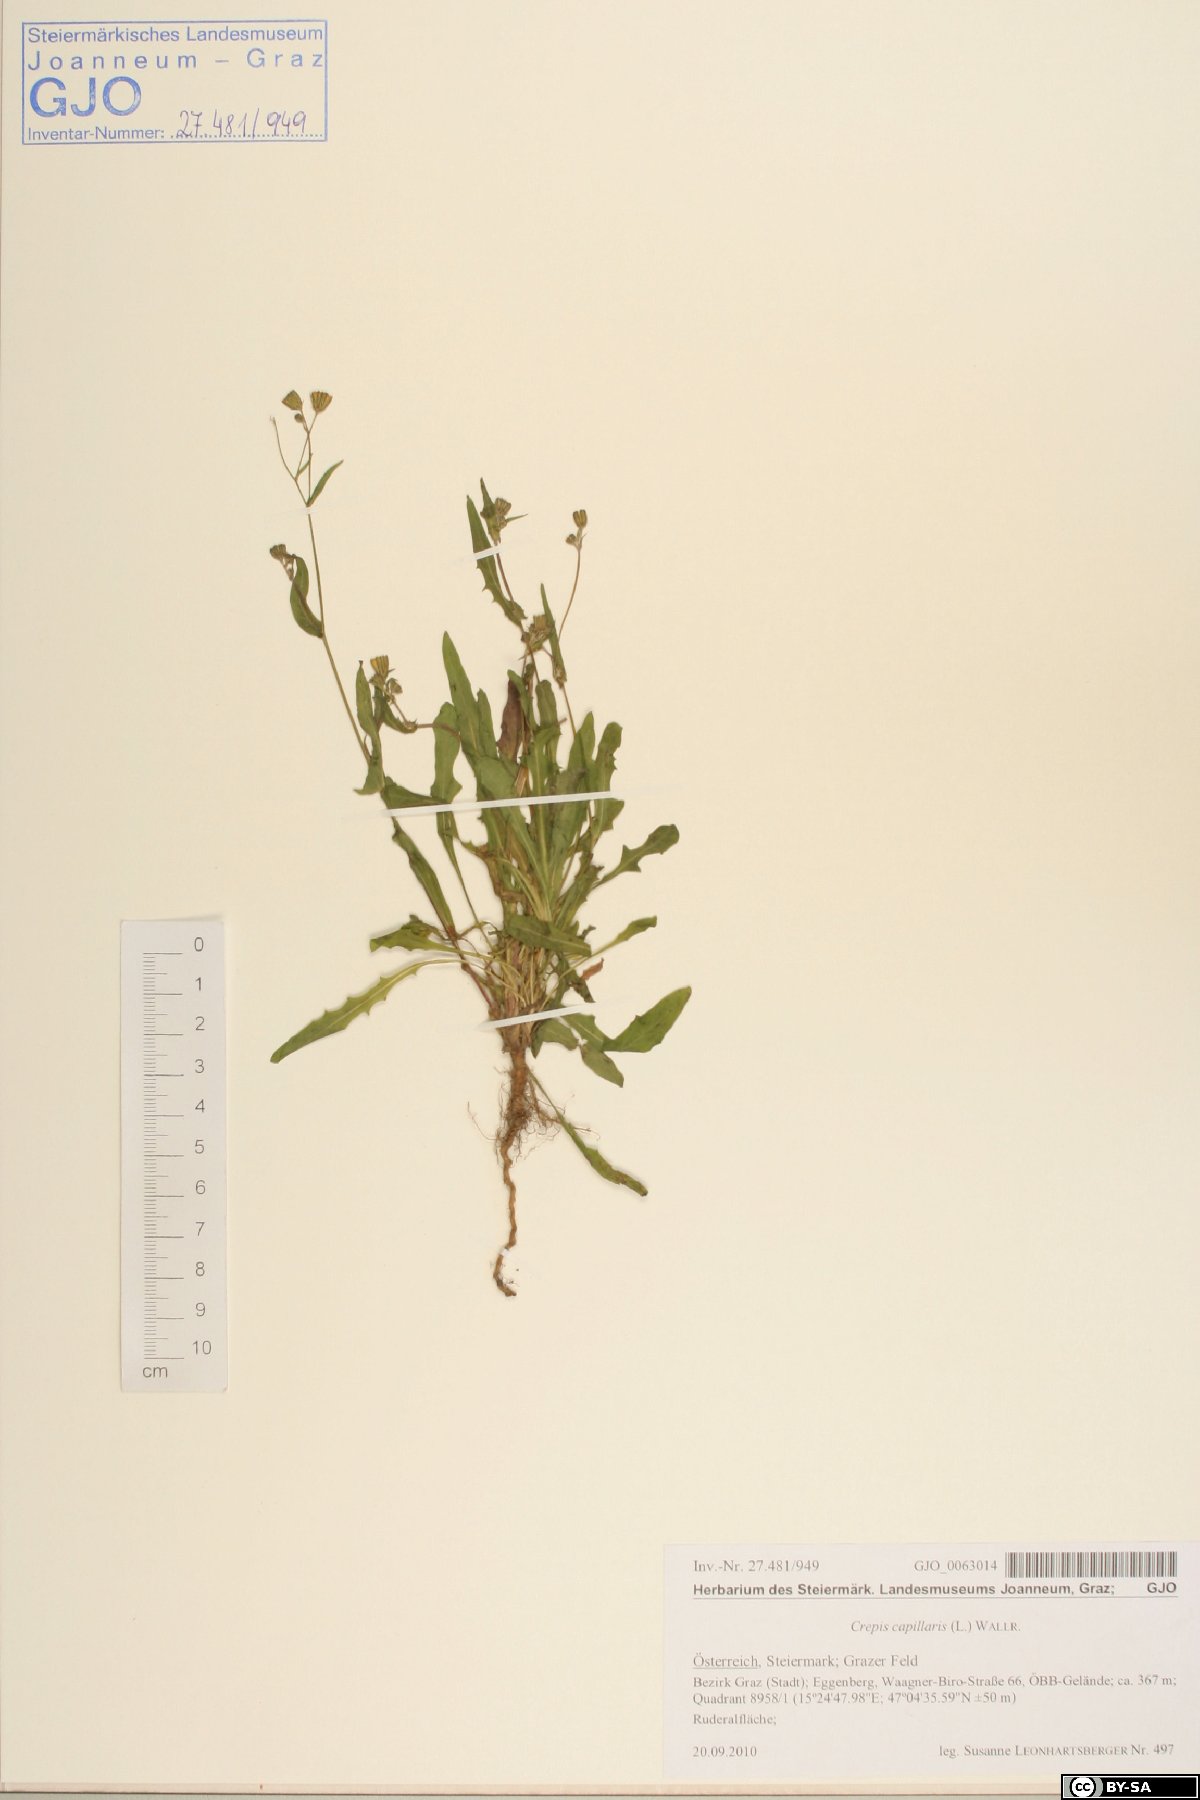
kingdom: Plantae
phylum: Tracheophyta
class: Magnoliopsida
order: Asterales
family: Asteraceae
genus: Crepis
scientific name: Crepis capillaris
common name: Smooth hawksbeard
